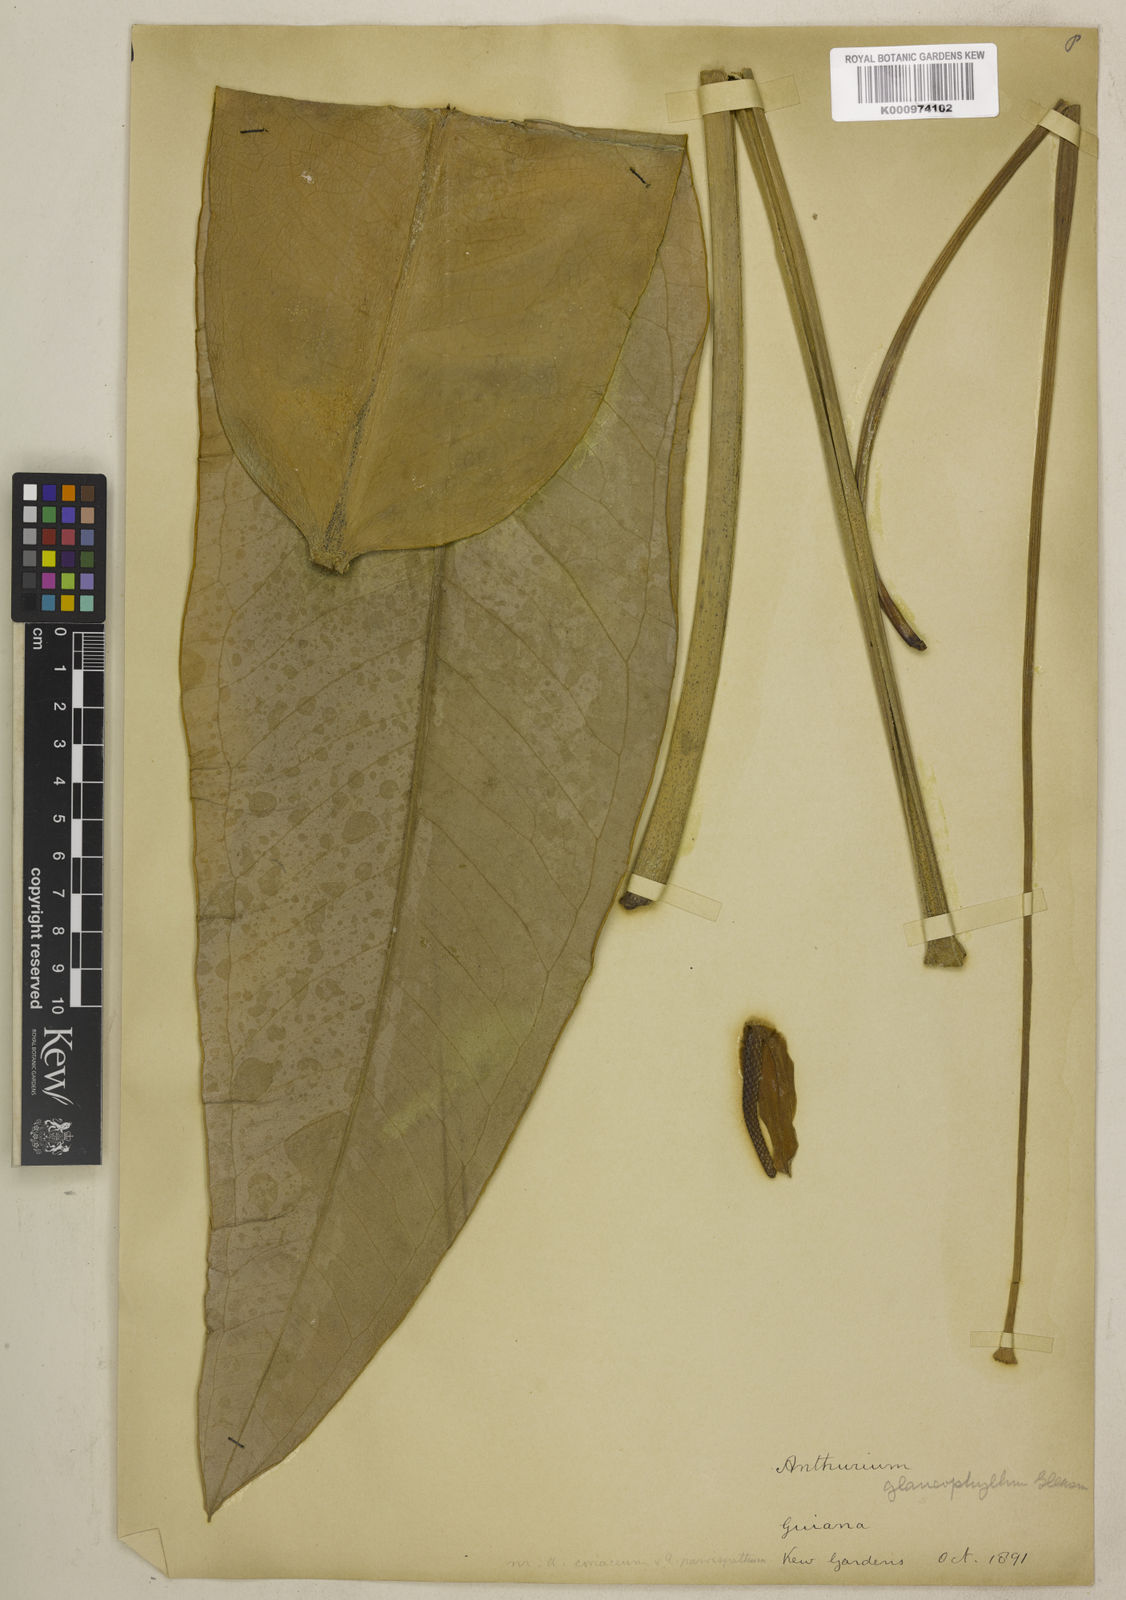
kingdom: Plantae
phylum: Tracheophyta
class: Liliopsida
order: Alismatales
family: Araceae
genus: Anthurium
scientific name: Anthurium glaucophyllum
